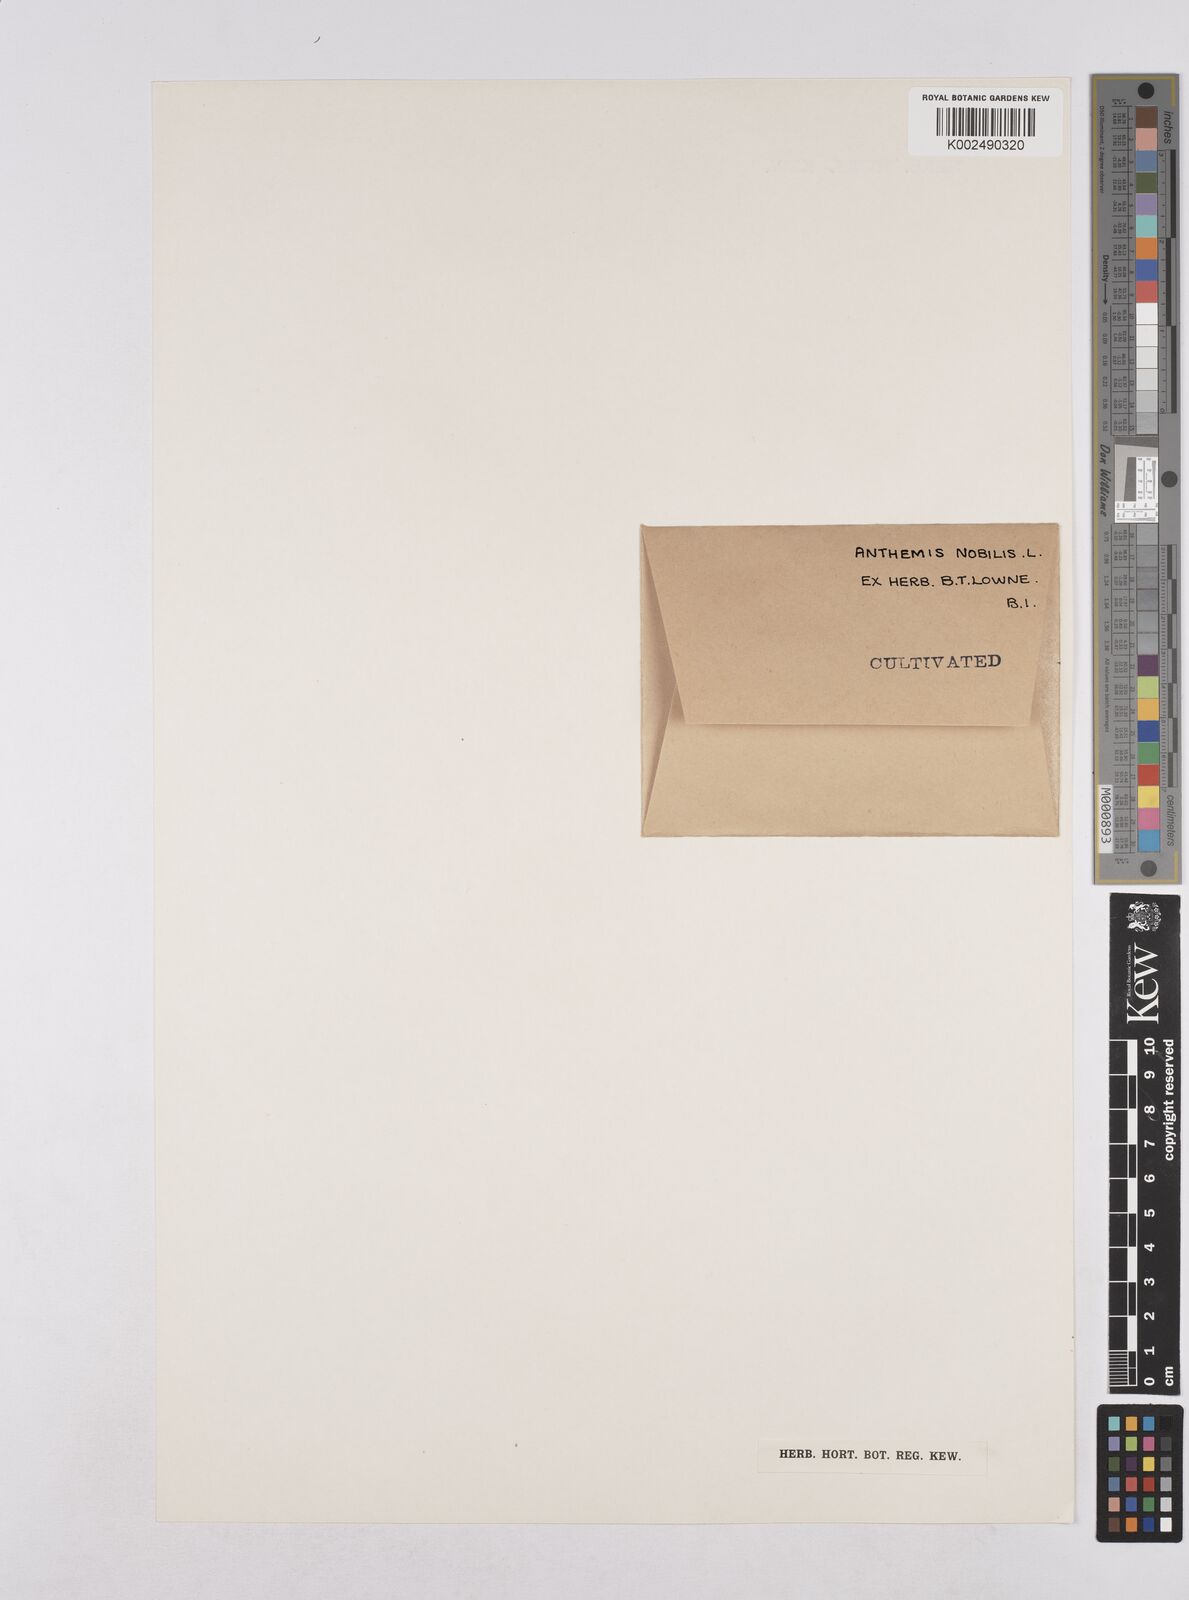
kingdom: Plantae
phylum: Tracheophyta
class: Magnoliopsida
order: Asterales
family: Asteraceae
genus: Chamaemelum
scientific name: Chamaemelum nobile
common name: Roman chamomile
